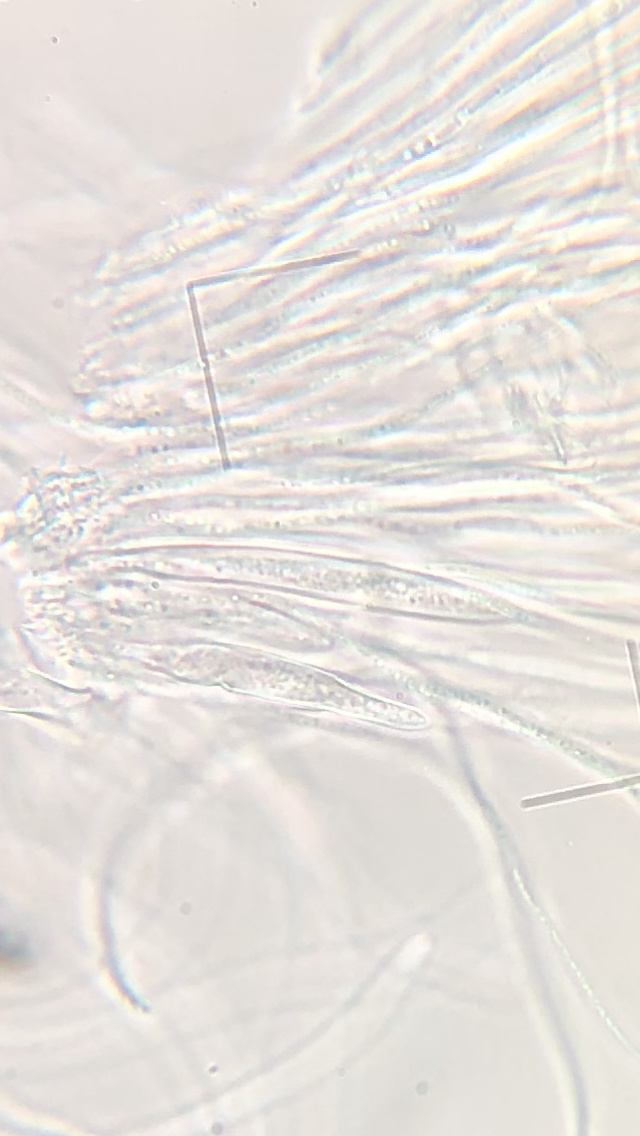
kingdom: Fungi
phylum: Ascomycota
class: Leotiomycetes
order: Rhytismatales
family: Rhytismataceae
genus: Lophodermium
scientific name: Lophodermium
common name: fureplet
